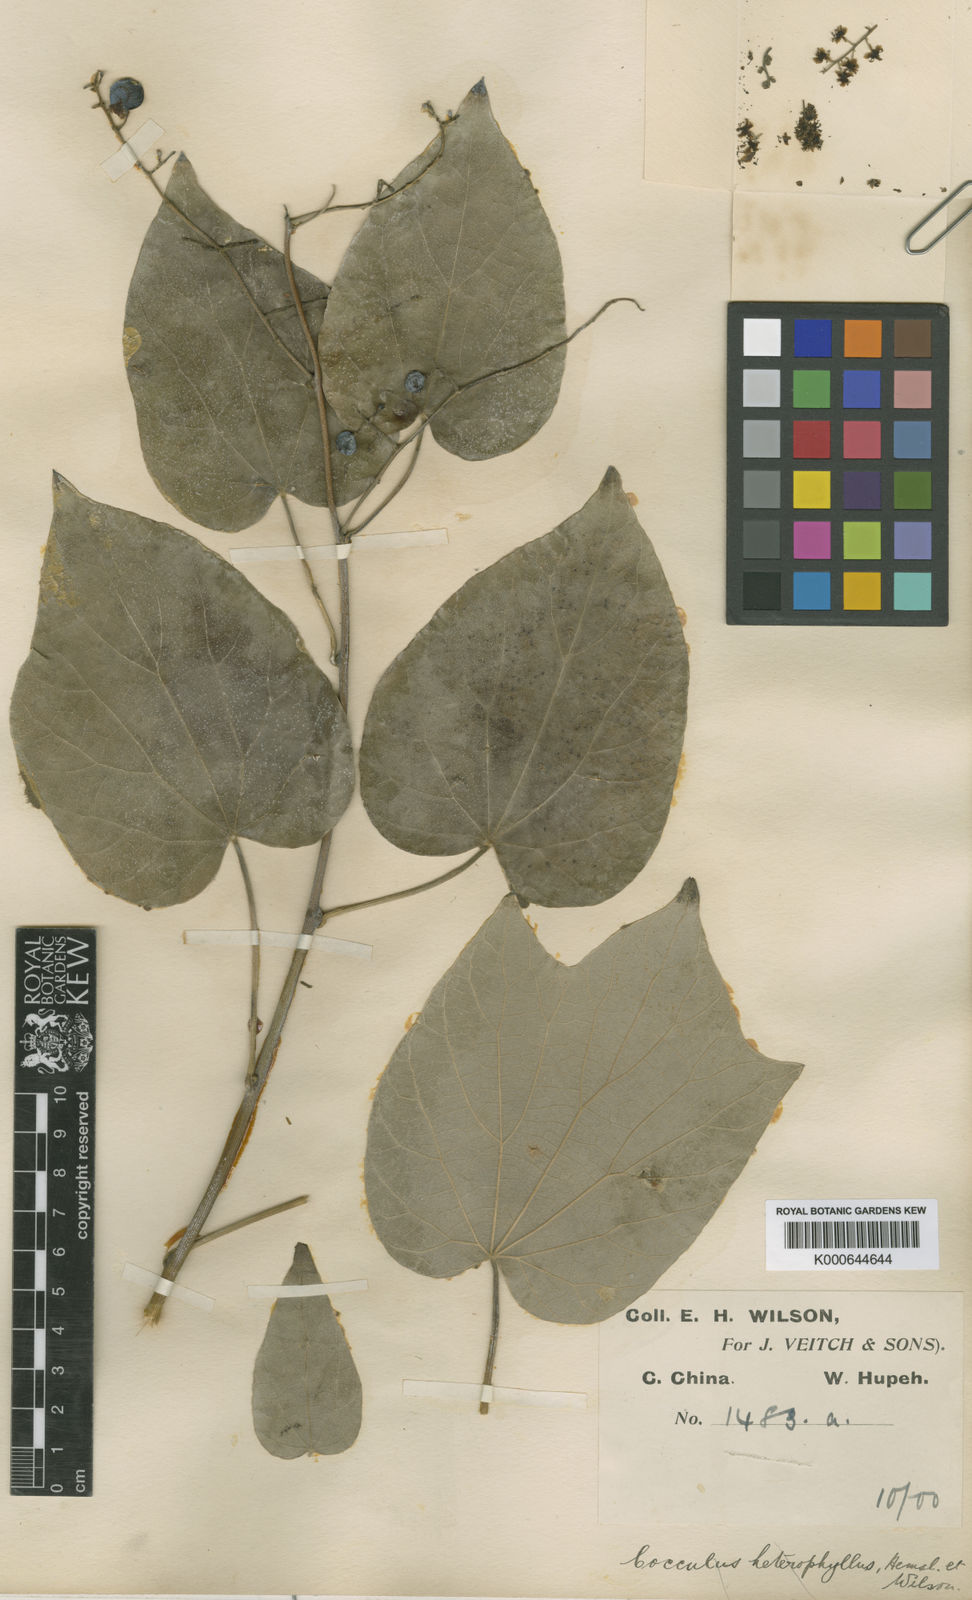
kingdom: Plantae
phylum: Tracheophyta
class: Magnoliopsida
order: Ranunculales
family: Menispermaceae
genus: Sinomenium
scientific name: Sinomenium acutum
